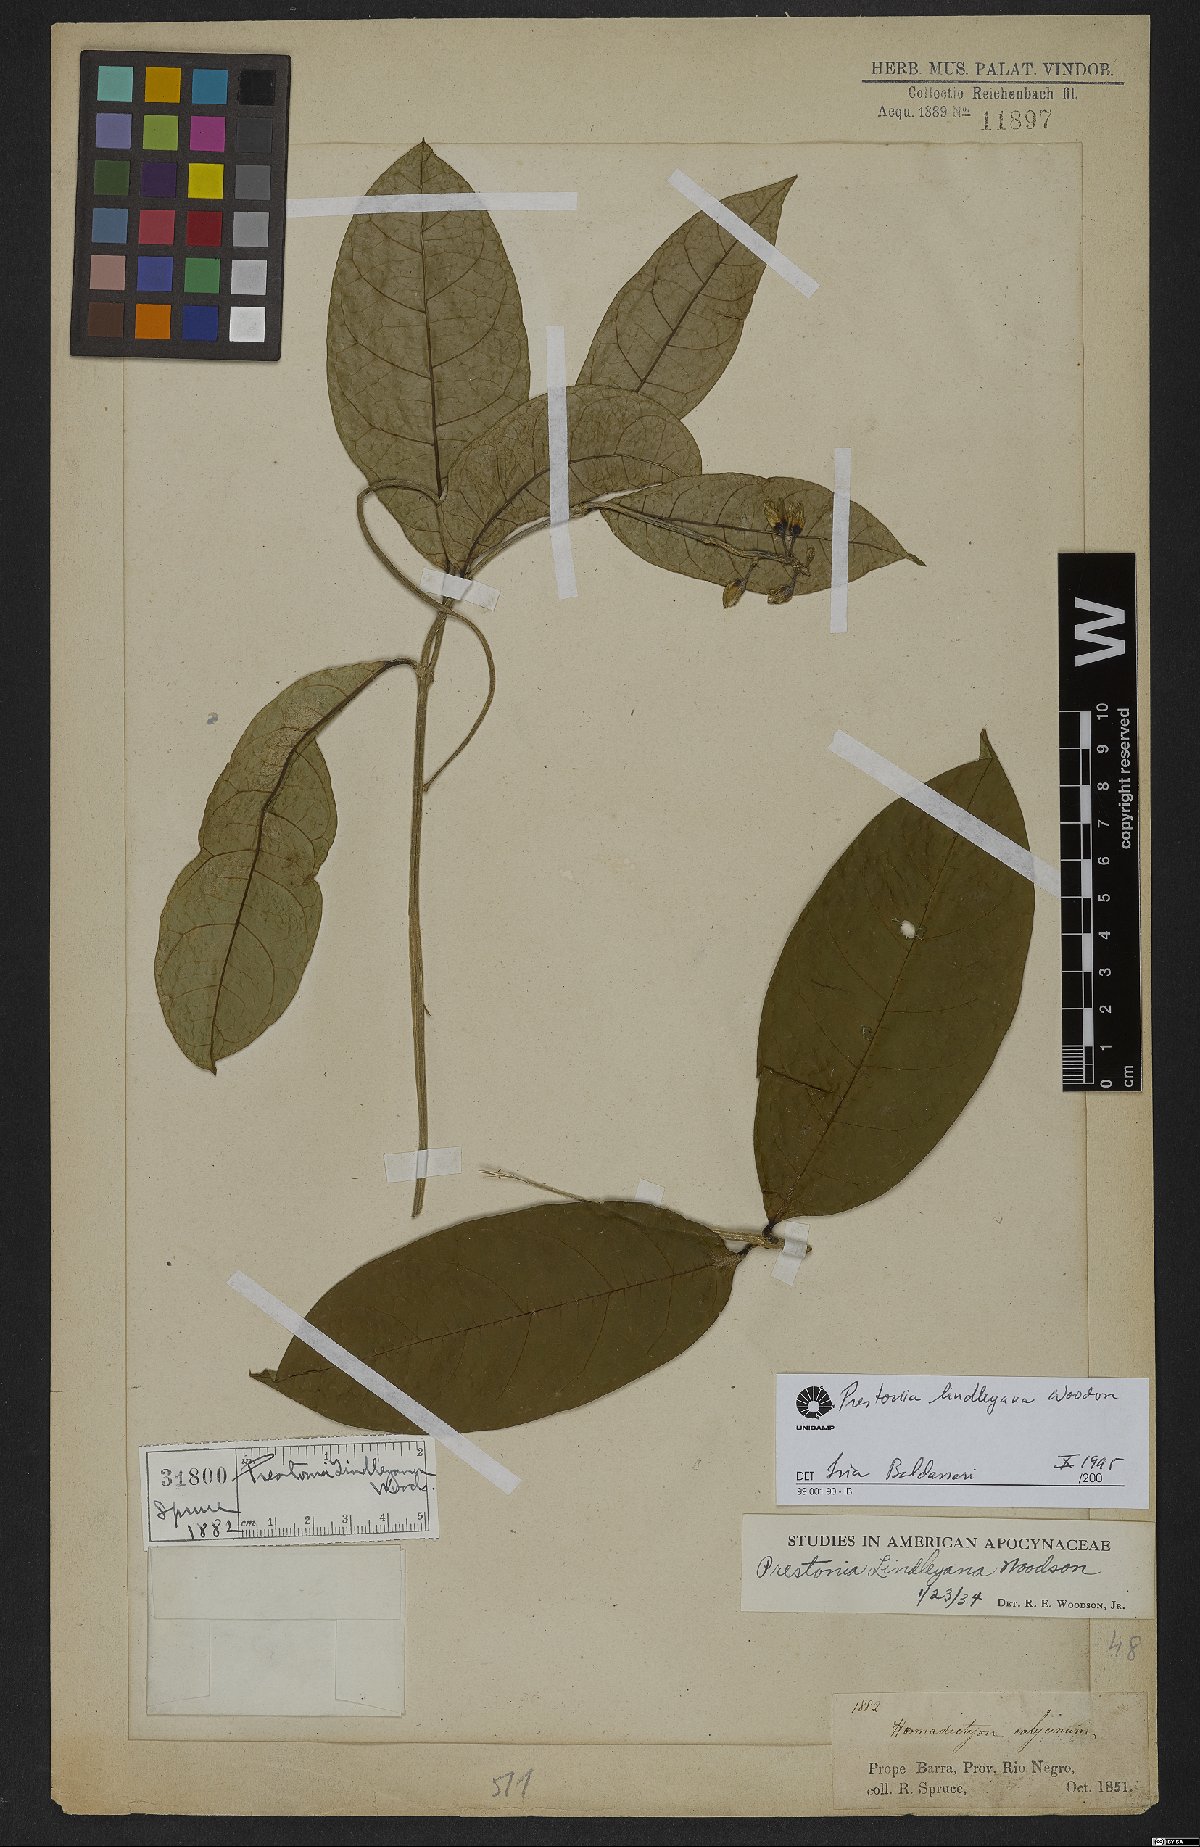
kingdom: Plantae
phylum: Tracheophyta
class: Magnoliopsida
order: Gentianales
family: Apocynaceae
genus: Prestonia
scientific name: Prestonia lindleyana
